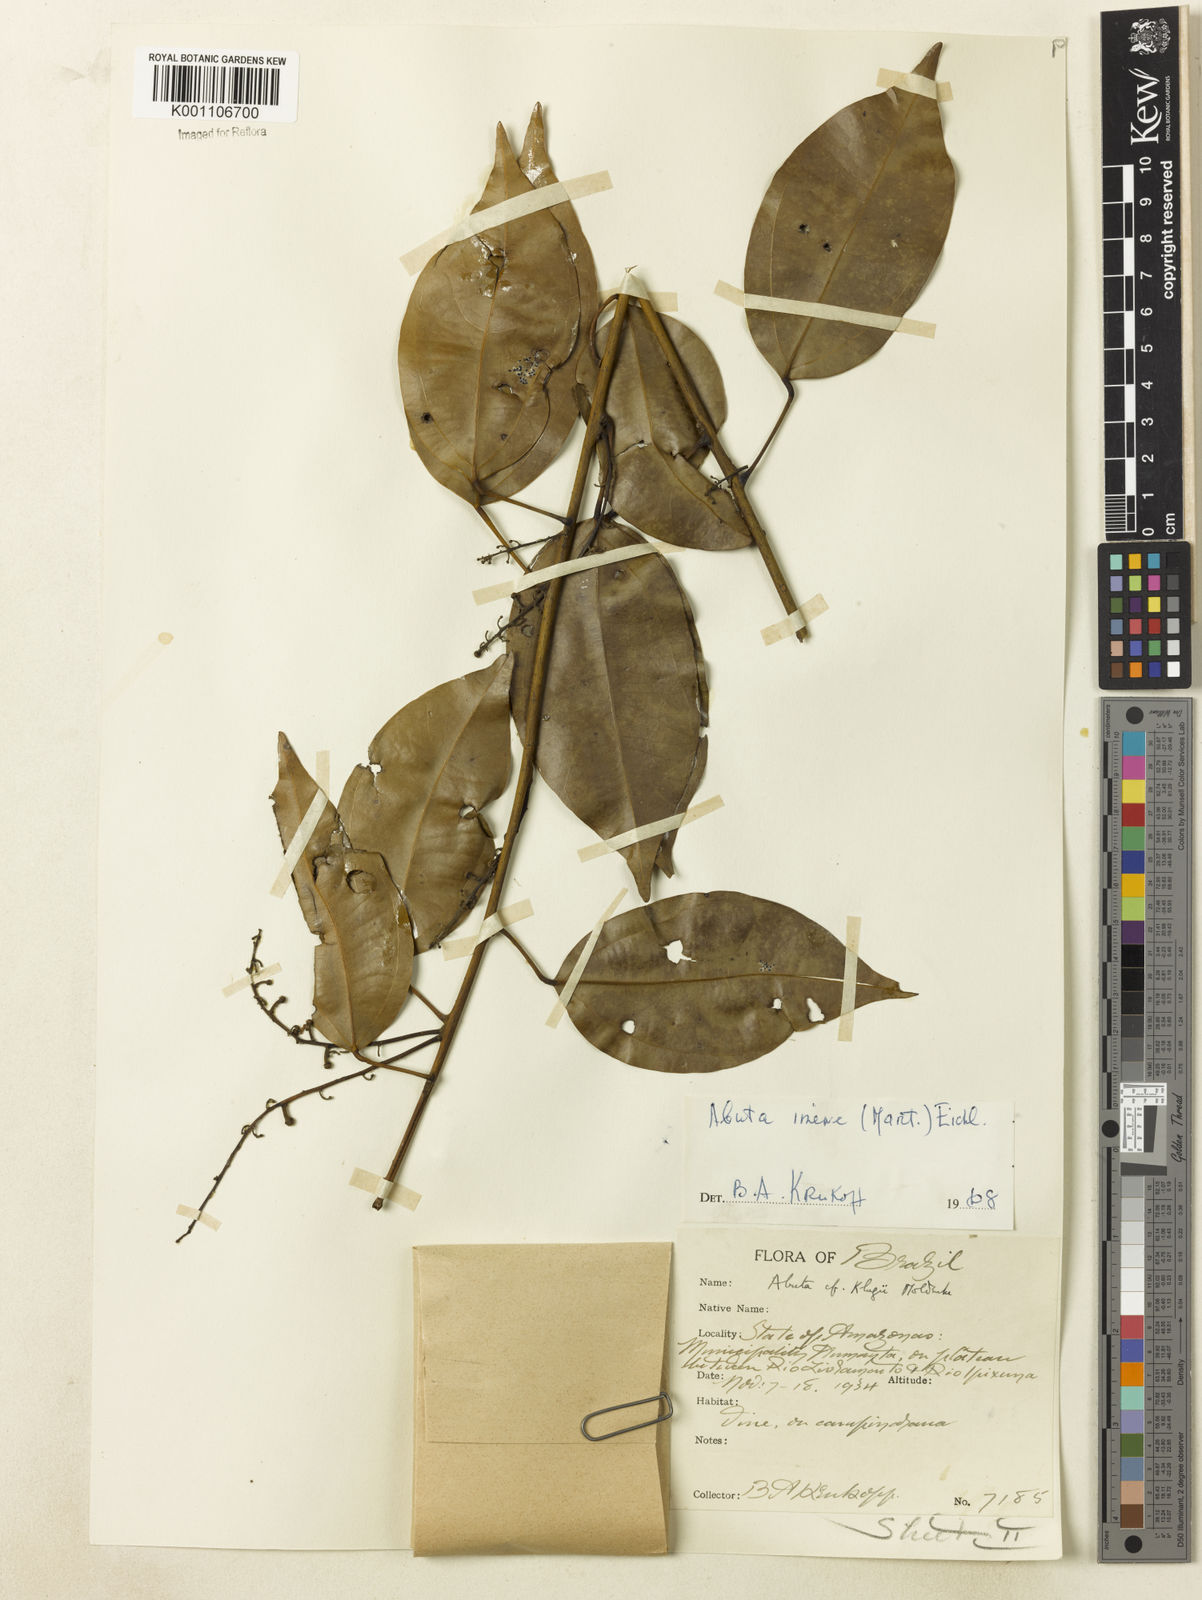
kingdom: Plantae
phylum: Tracheophyta
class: Magnoliopsida
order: Ranunculales
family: Menispermaceae
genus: Abuta
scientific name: Abuta imene
